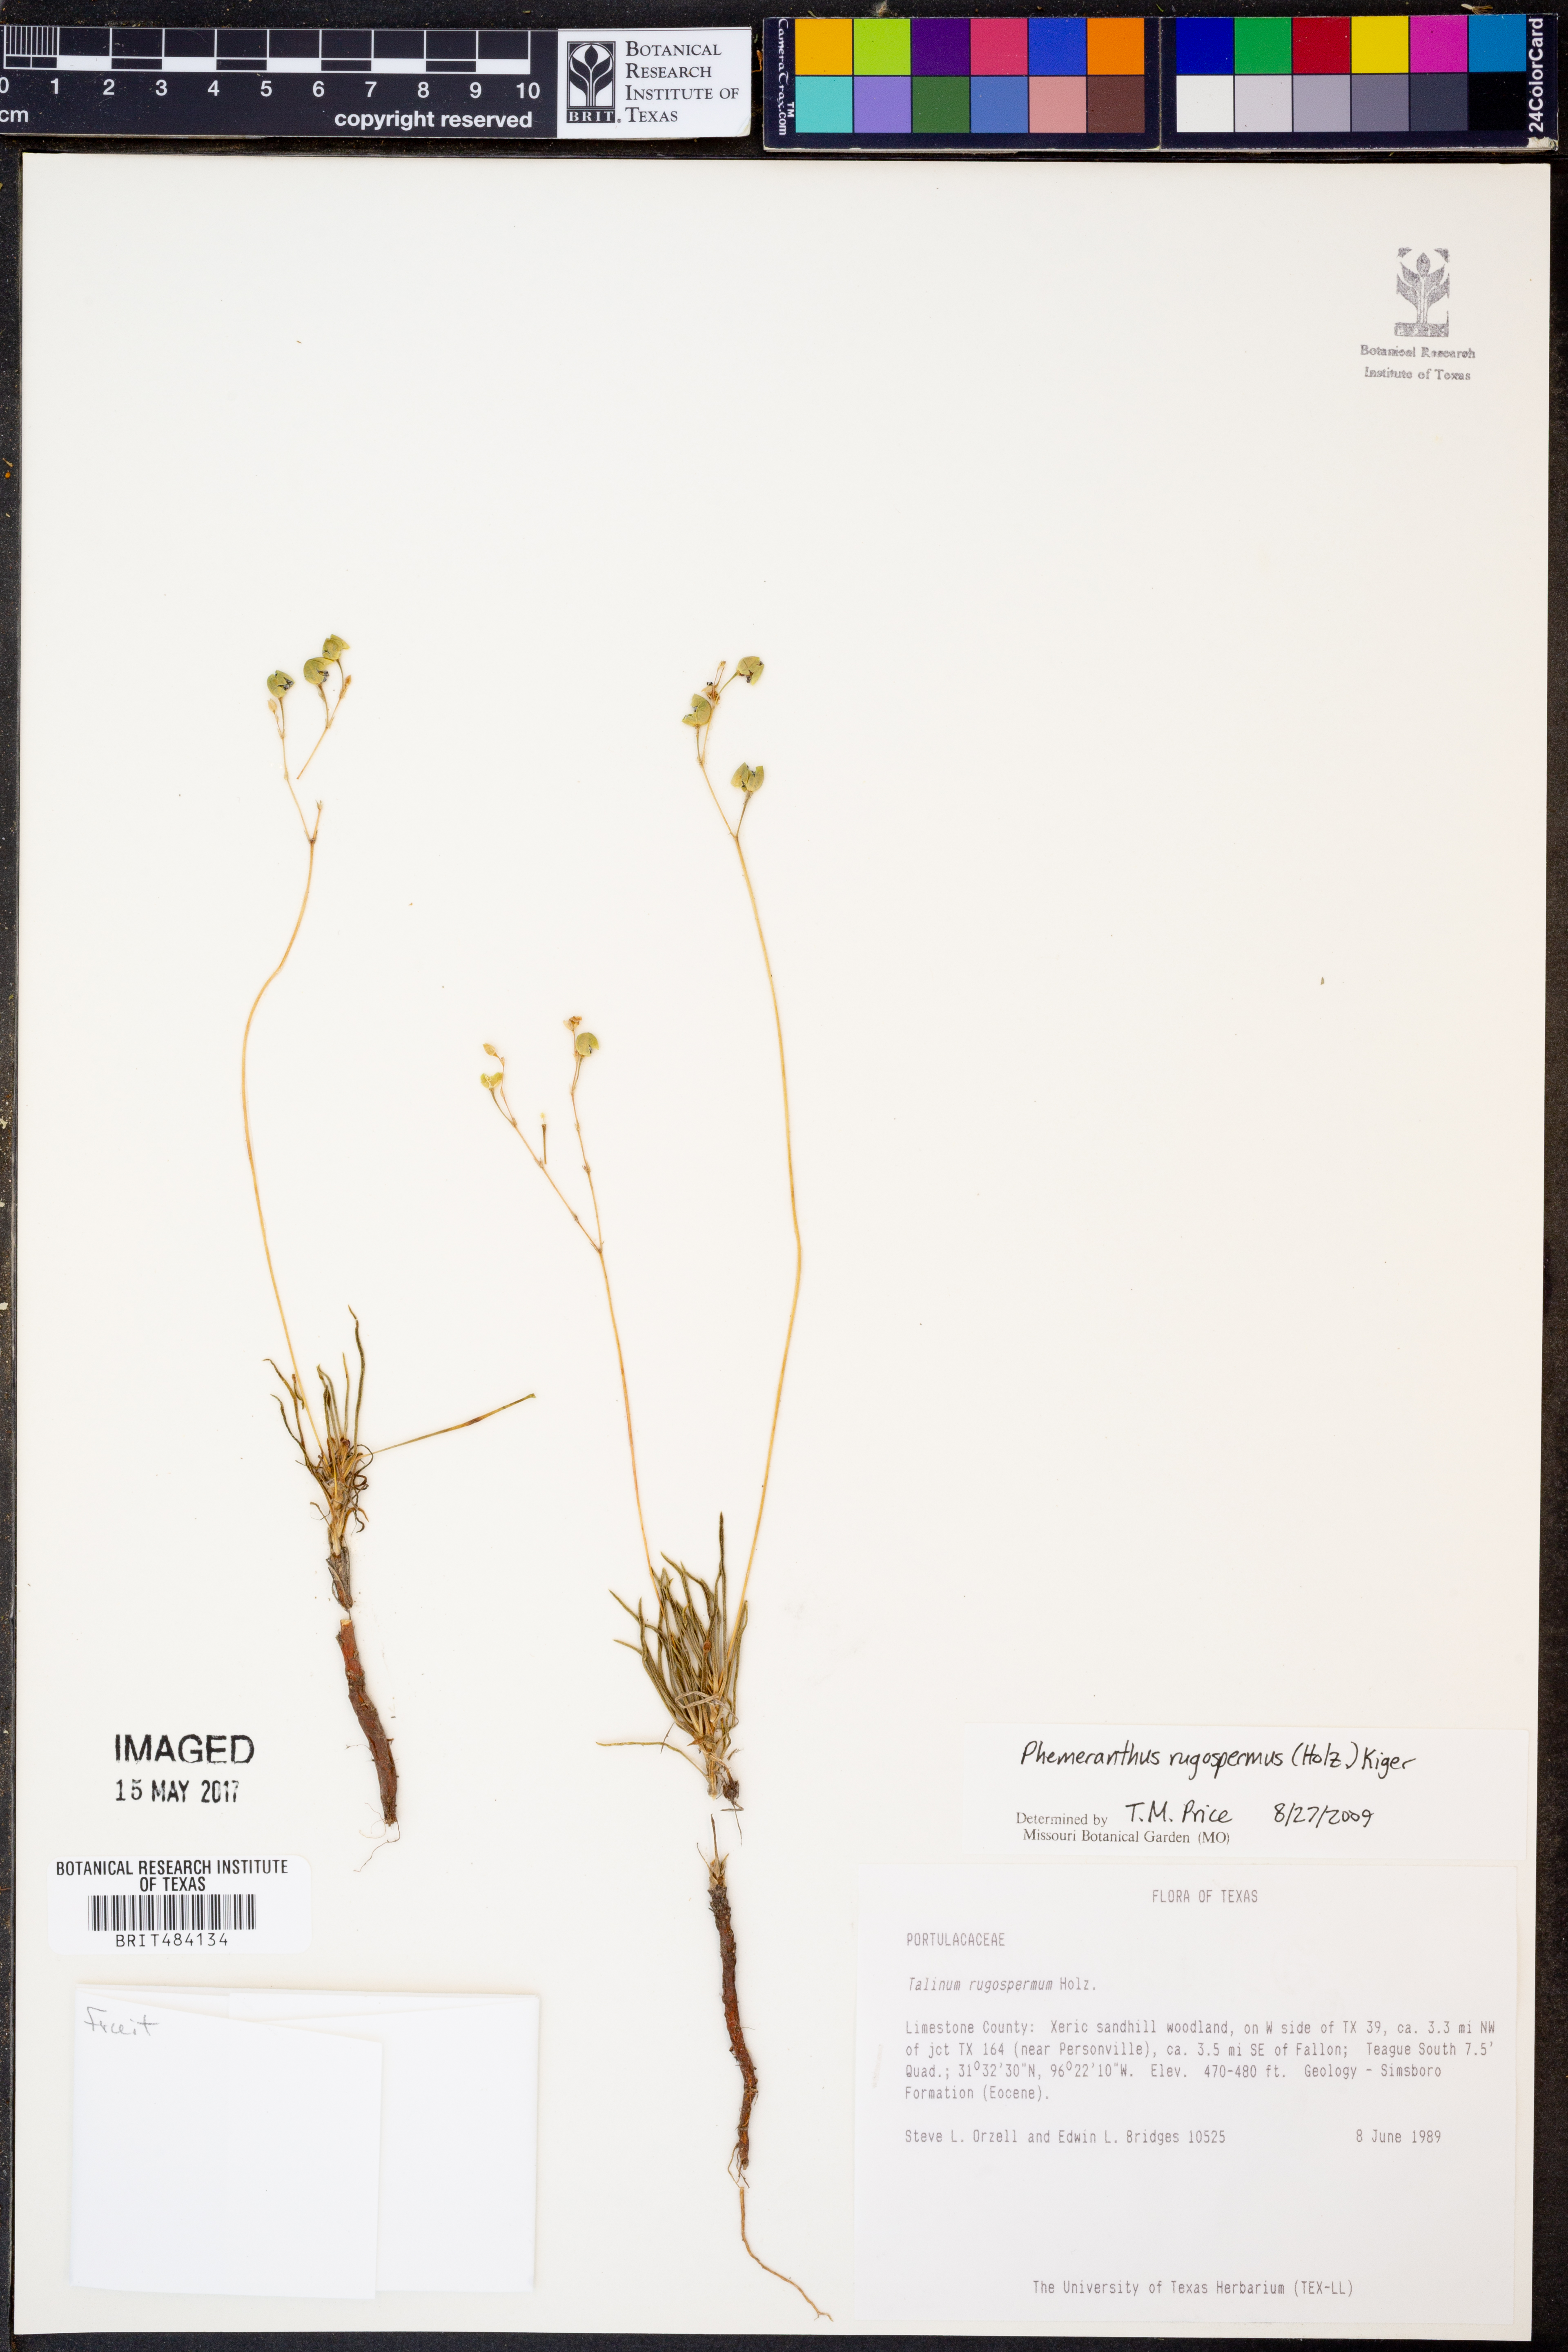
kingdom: Plantae
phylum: Tracheophyta
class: Magnoliopsida
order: Caryophyllales
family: Montiaceae
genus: Phemeranthus
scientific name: Phemeranthus rugospermus
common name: Prairie fameflower
